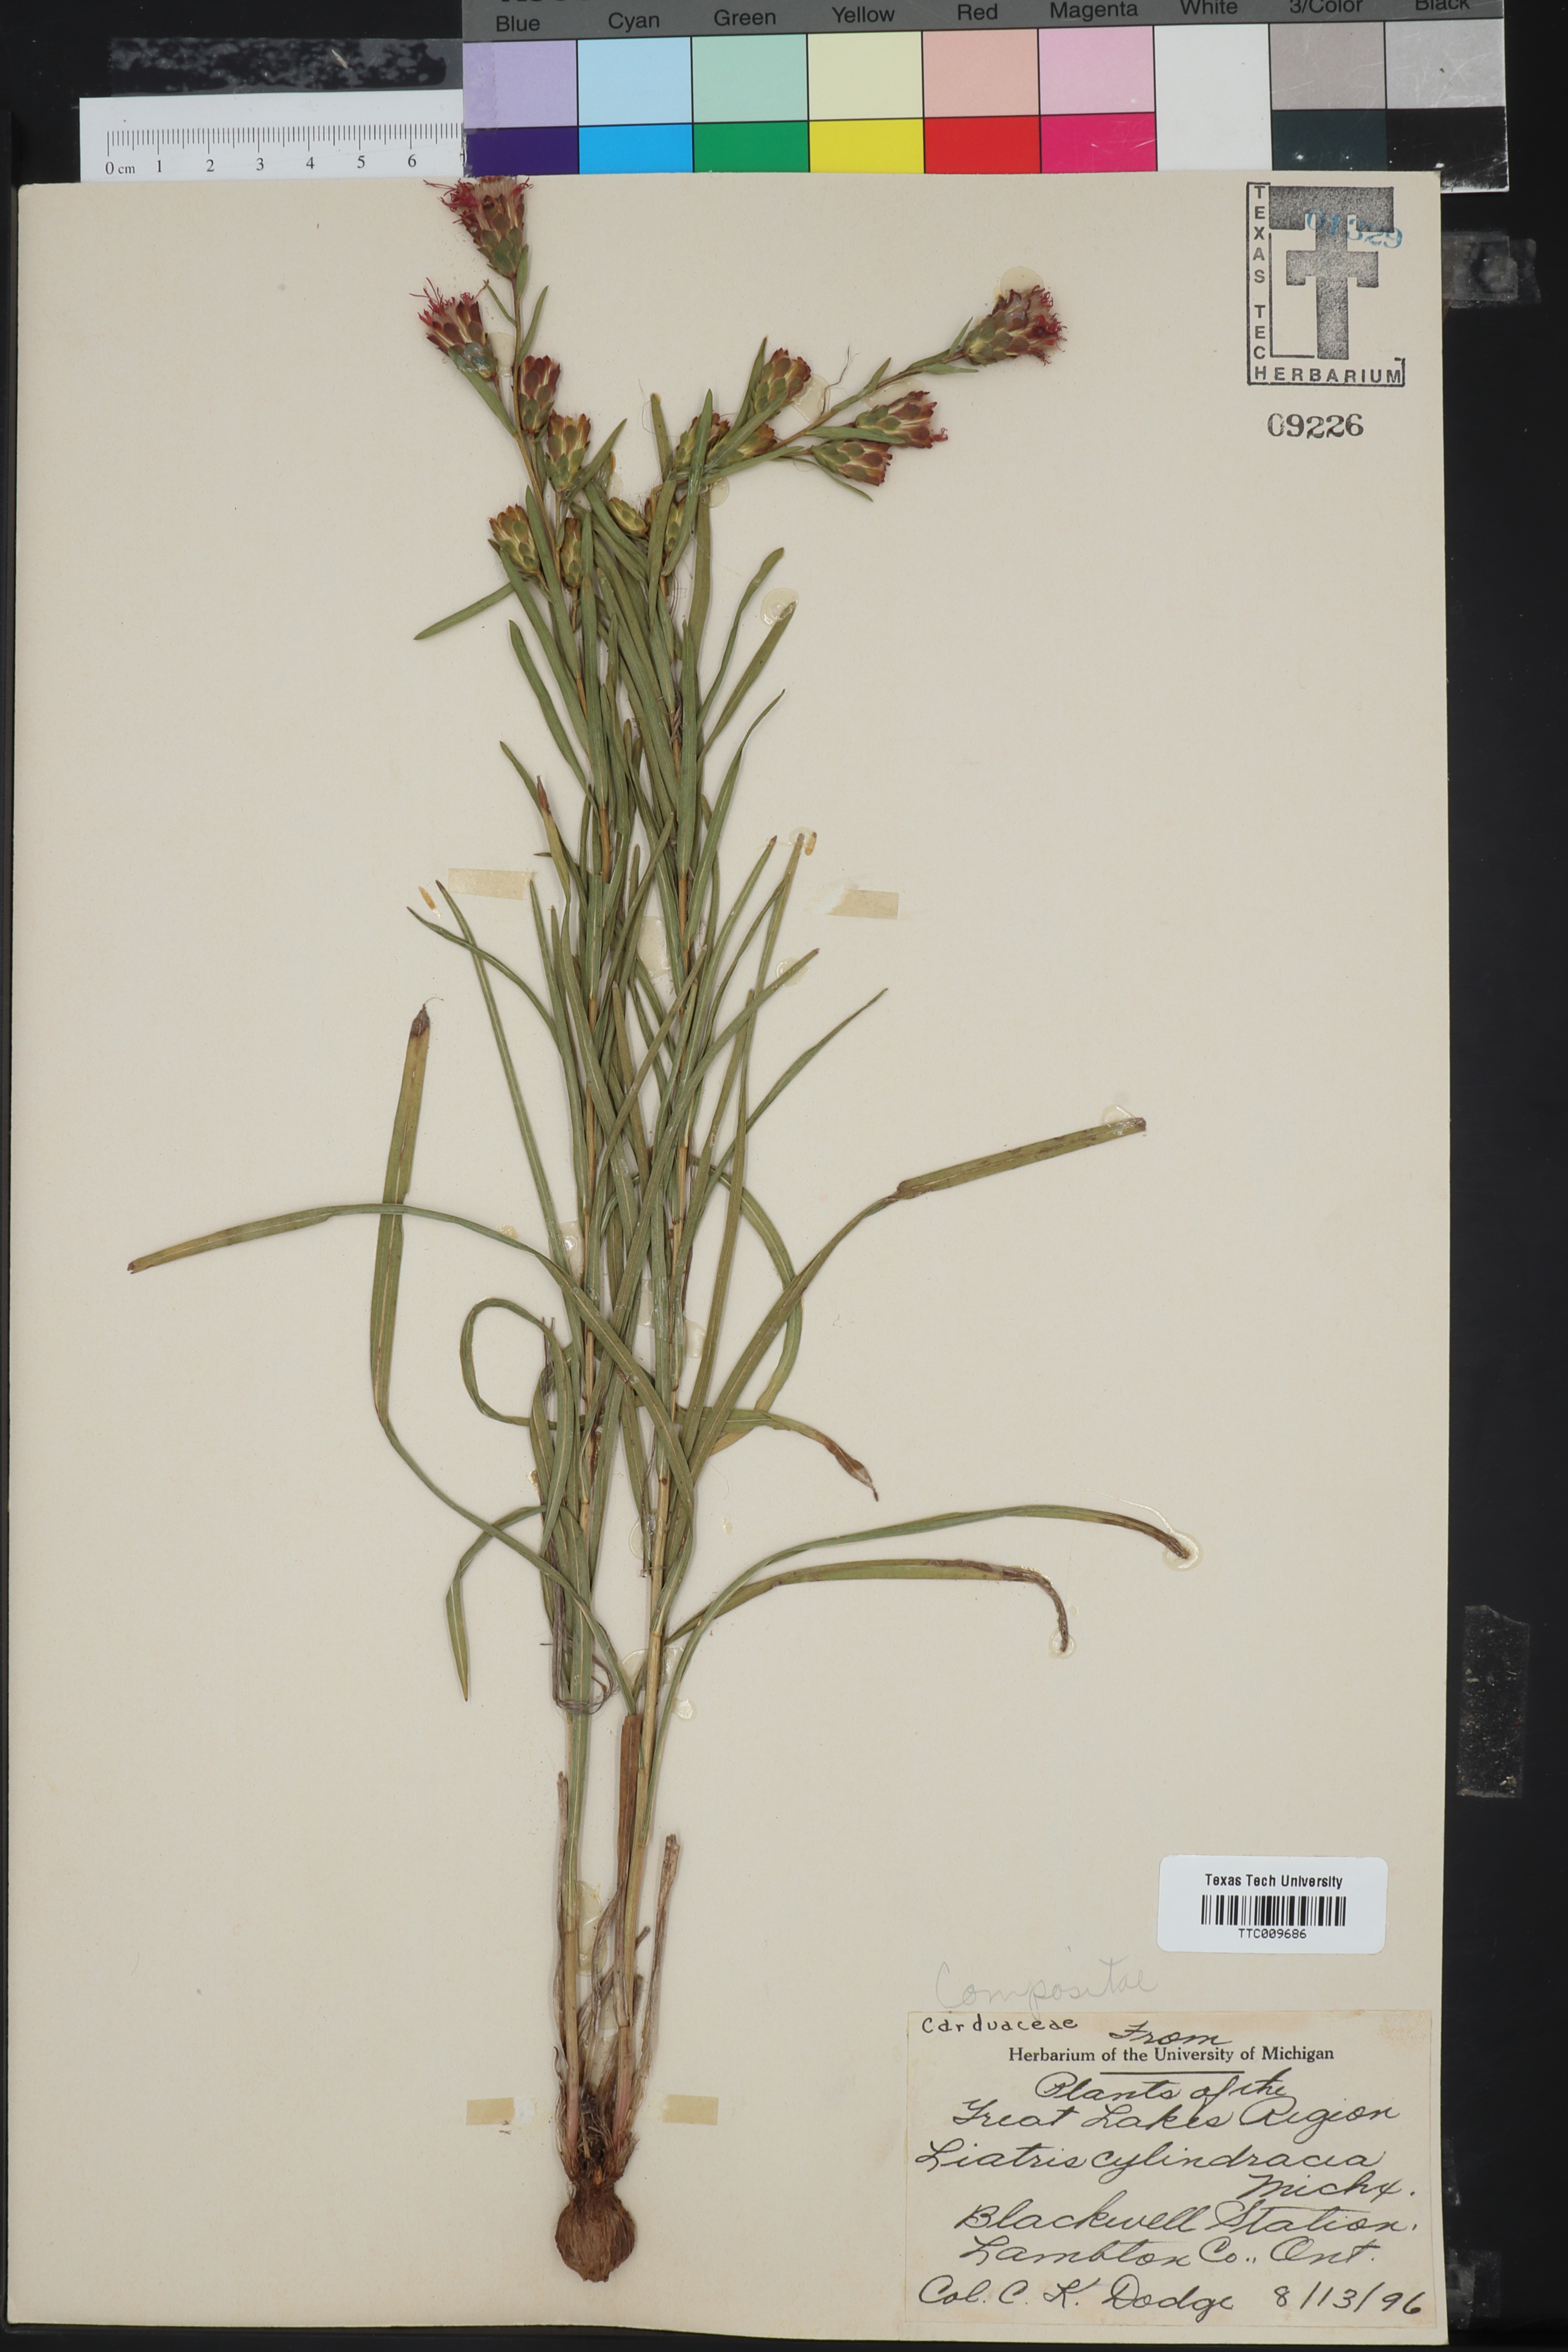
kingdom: Plantae
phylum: Tracheophyta
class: Magnoliopsida
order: Asterales
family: Asteraceae
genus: Liatris
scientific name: Liatris cylindracea
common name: Few-head blazingstar
